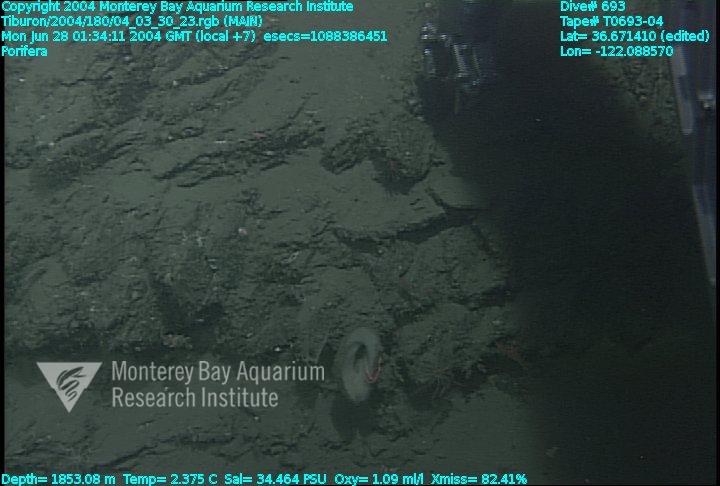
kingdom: Animalia
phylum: Porifera
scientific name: Porifera
